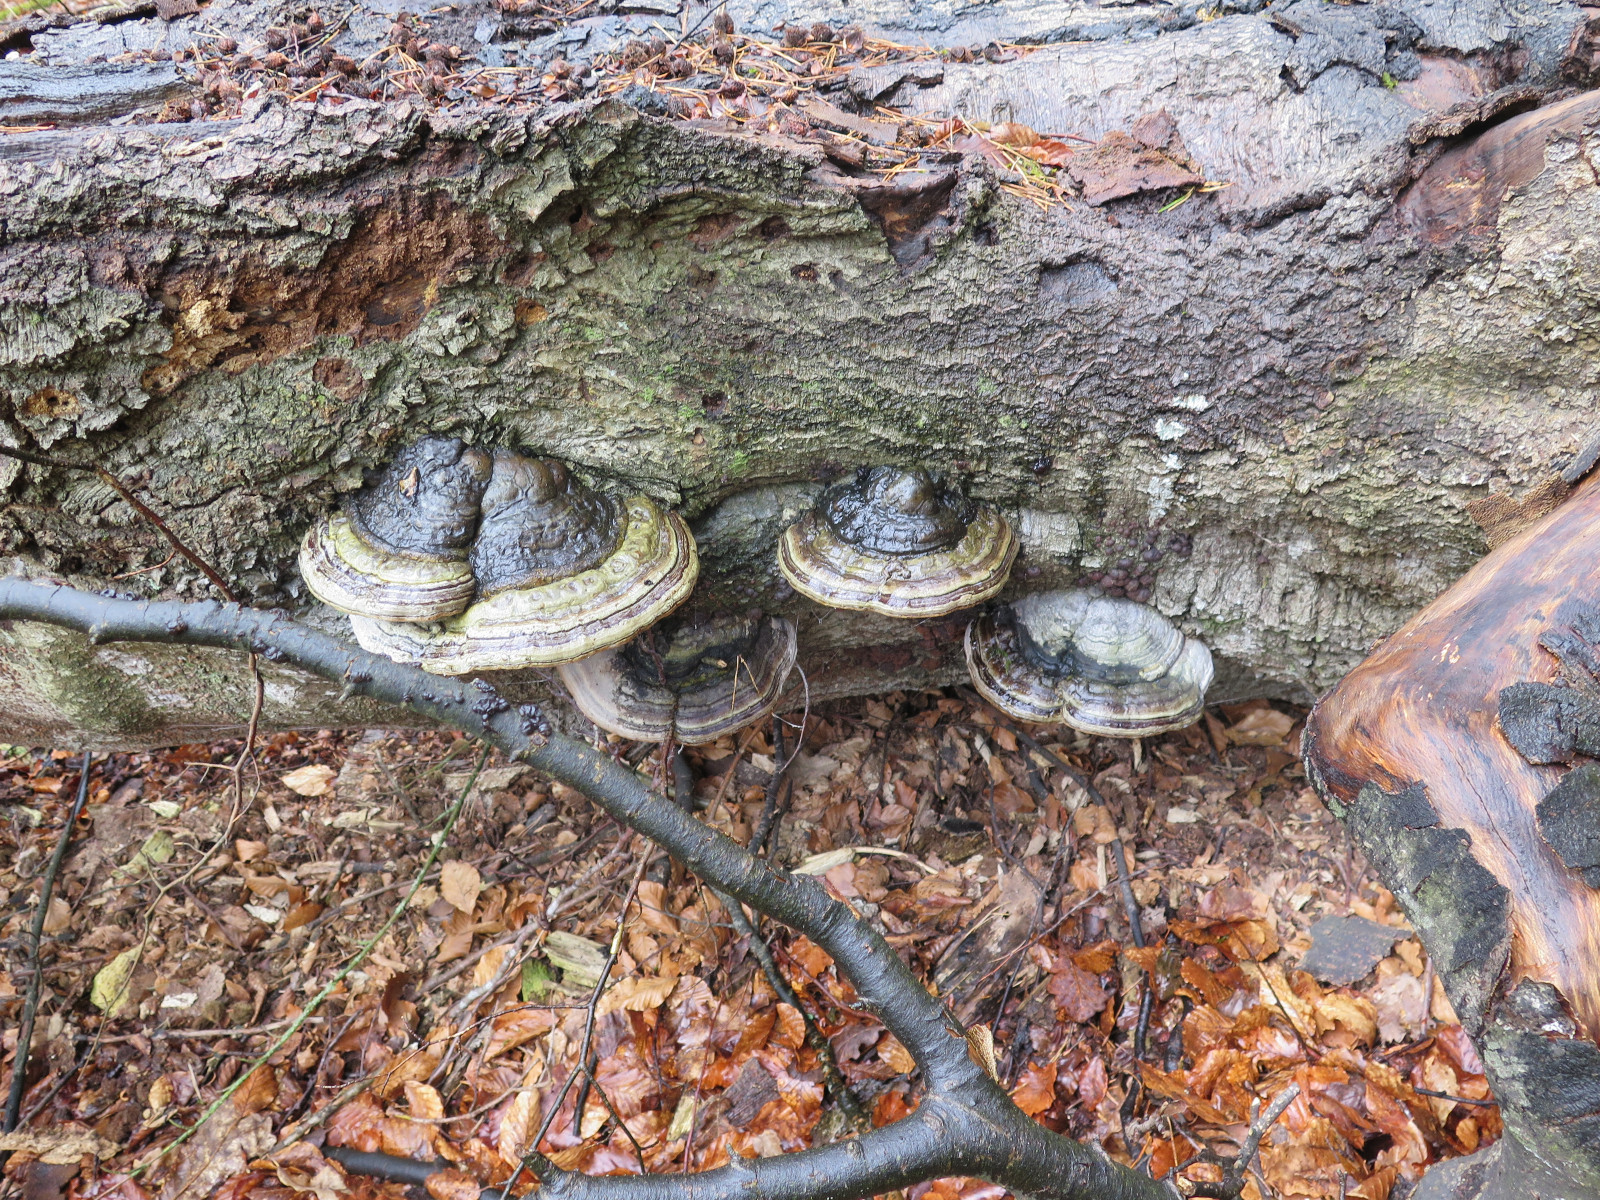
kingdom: Fungi
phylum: Basidiomycota
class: Agaricomycetes
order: Polyporales
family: Polyporaceae
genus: Fomes
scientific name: Fomes fomentarius
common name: tøndersvamp
